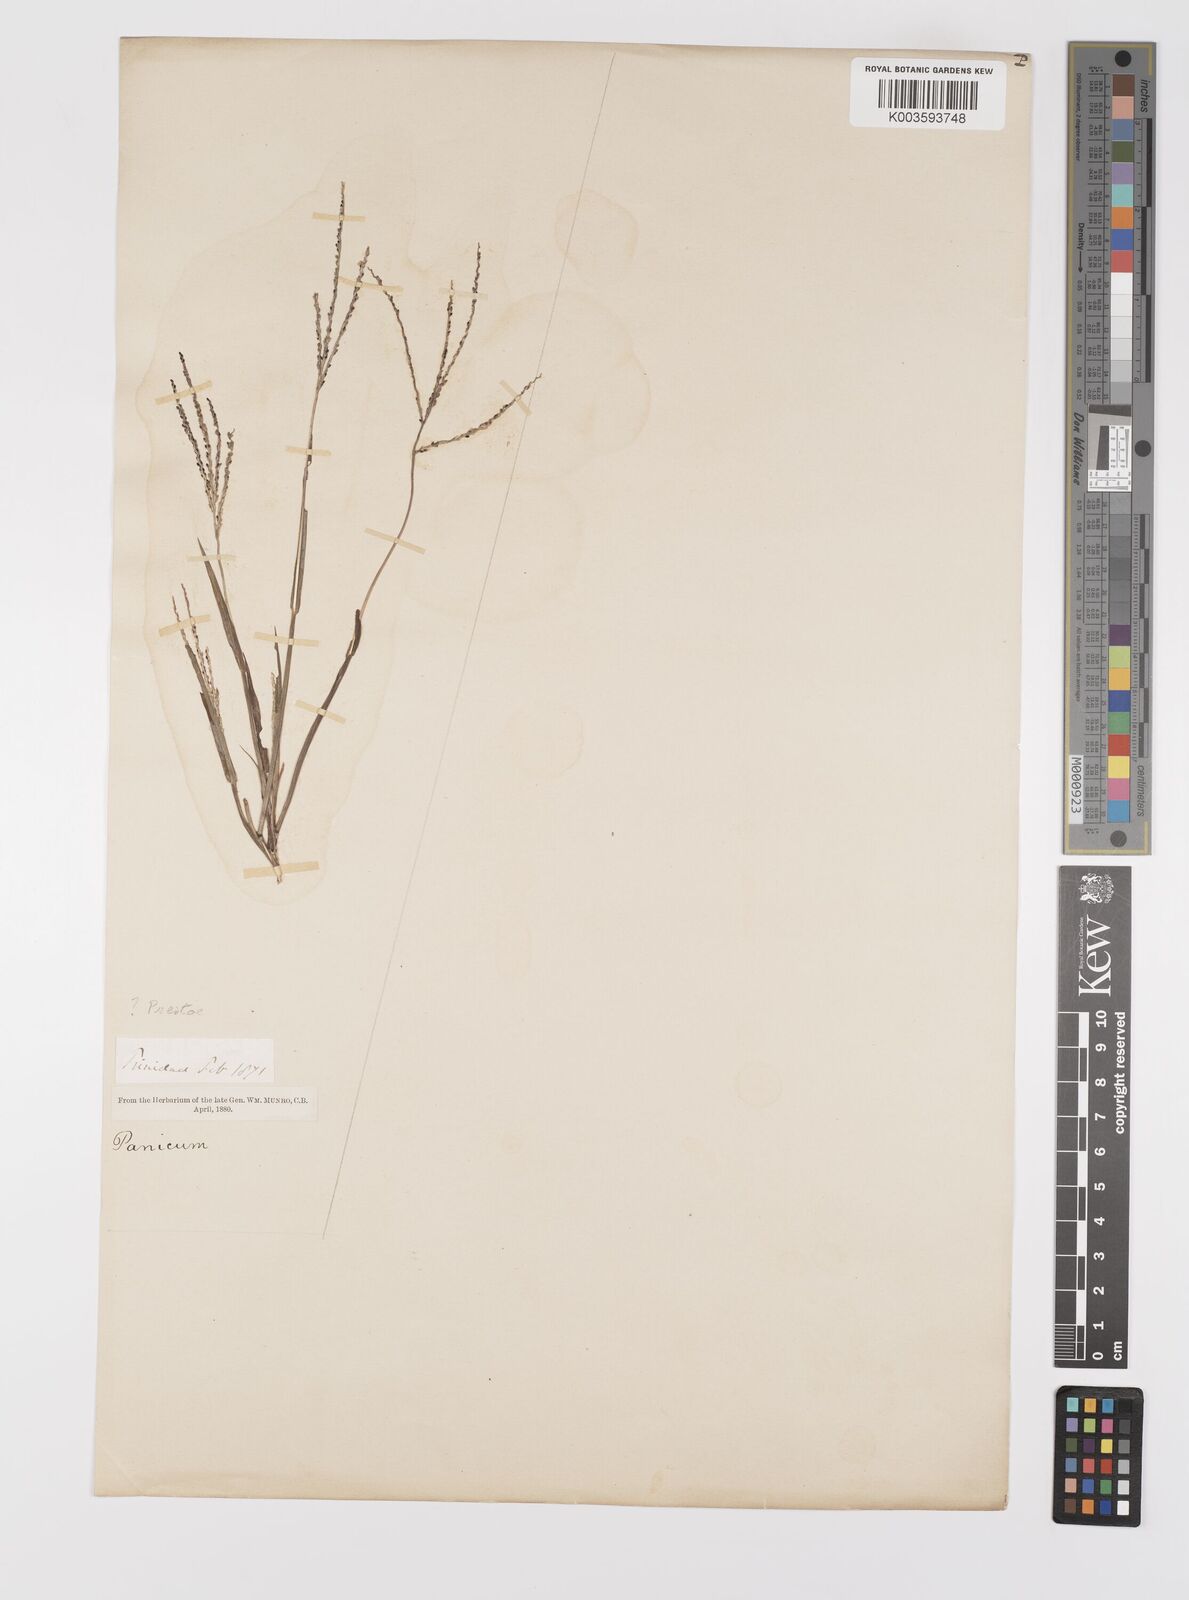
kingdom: Plantae
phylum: Tracheophyta
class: Liliopsida
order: Poales
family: Poaceae
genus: Digitaria
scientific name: Digitaria violascens
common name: Violet crabgrass
